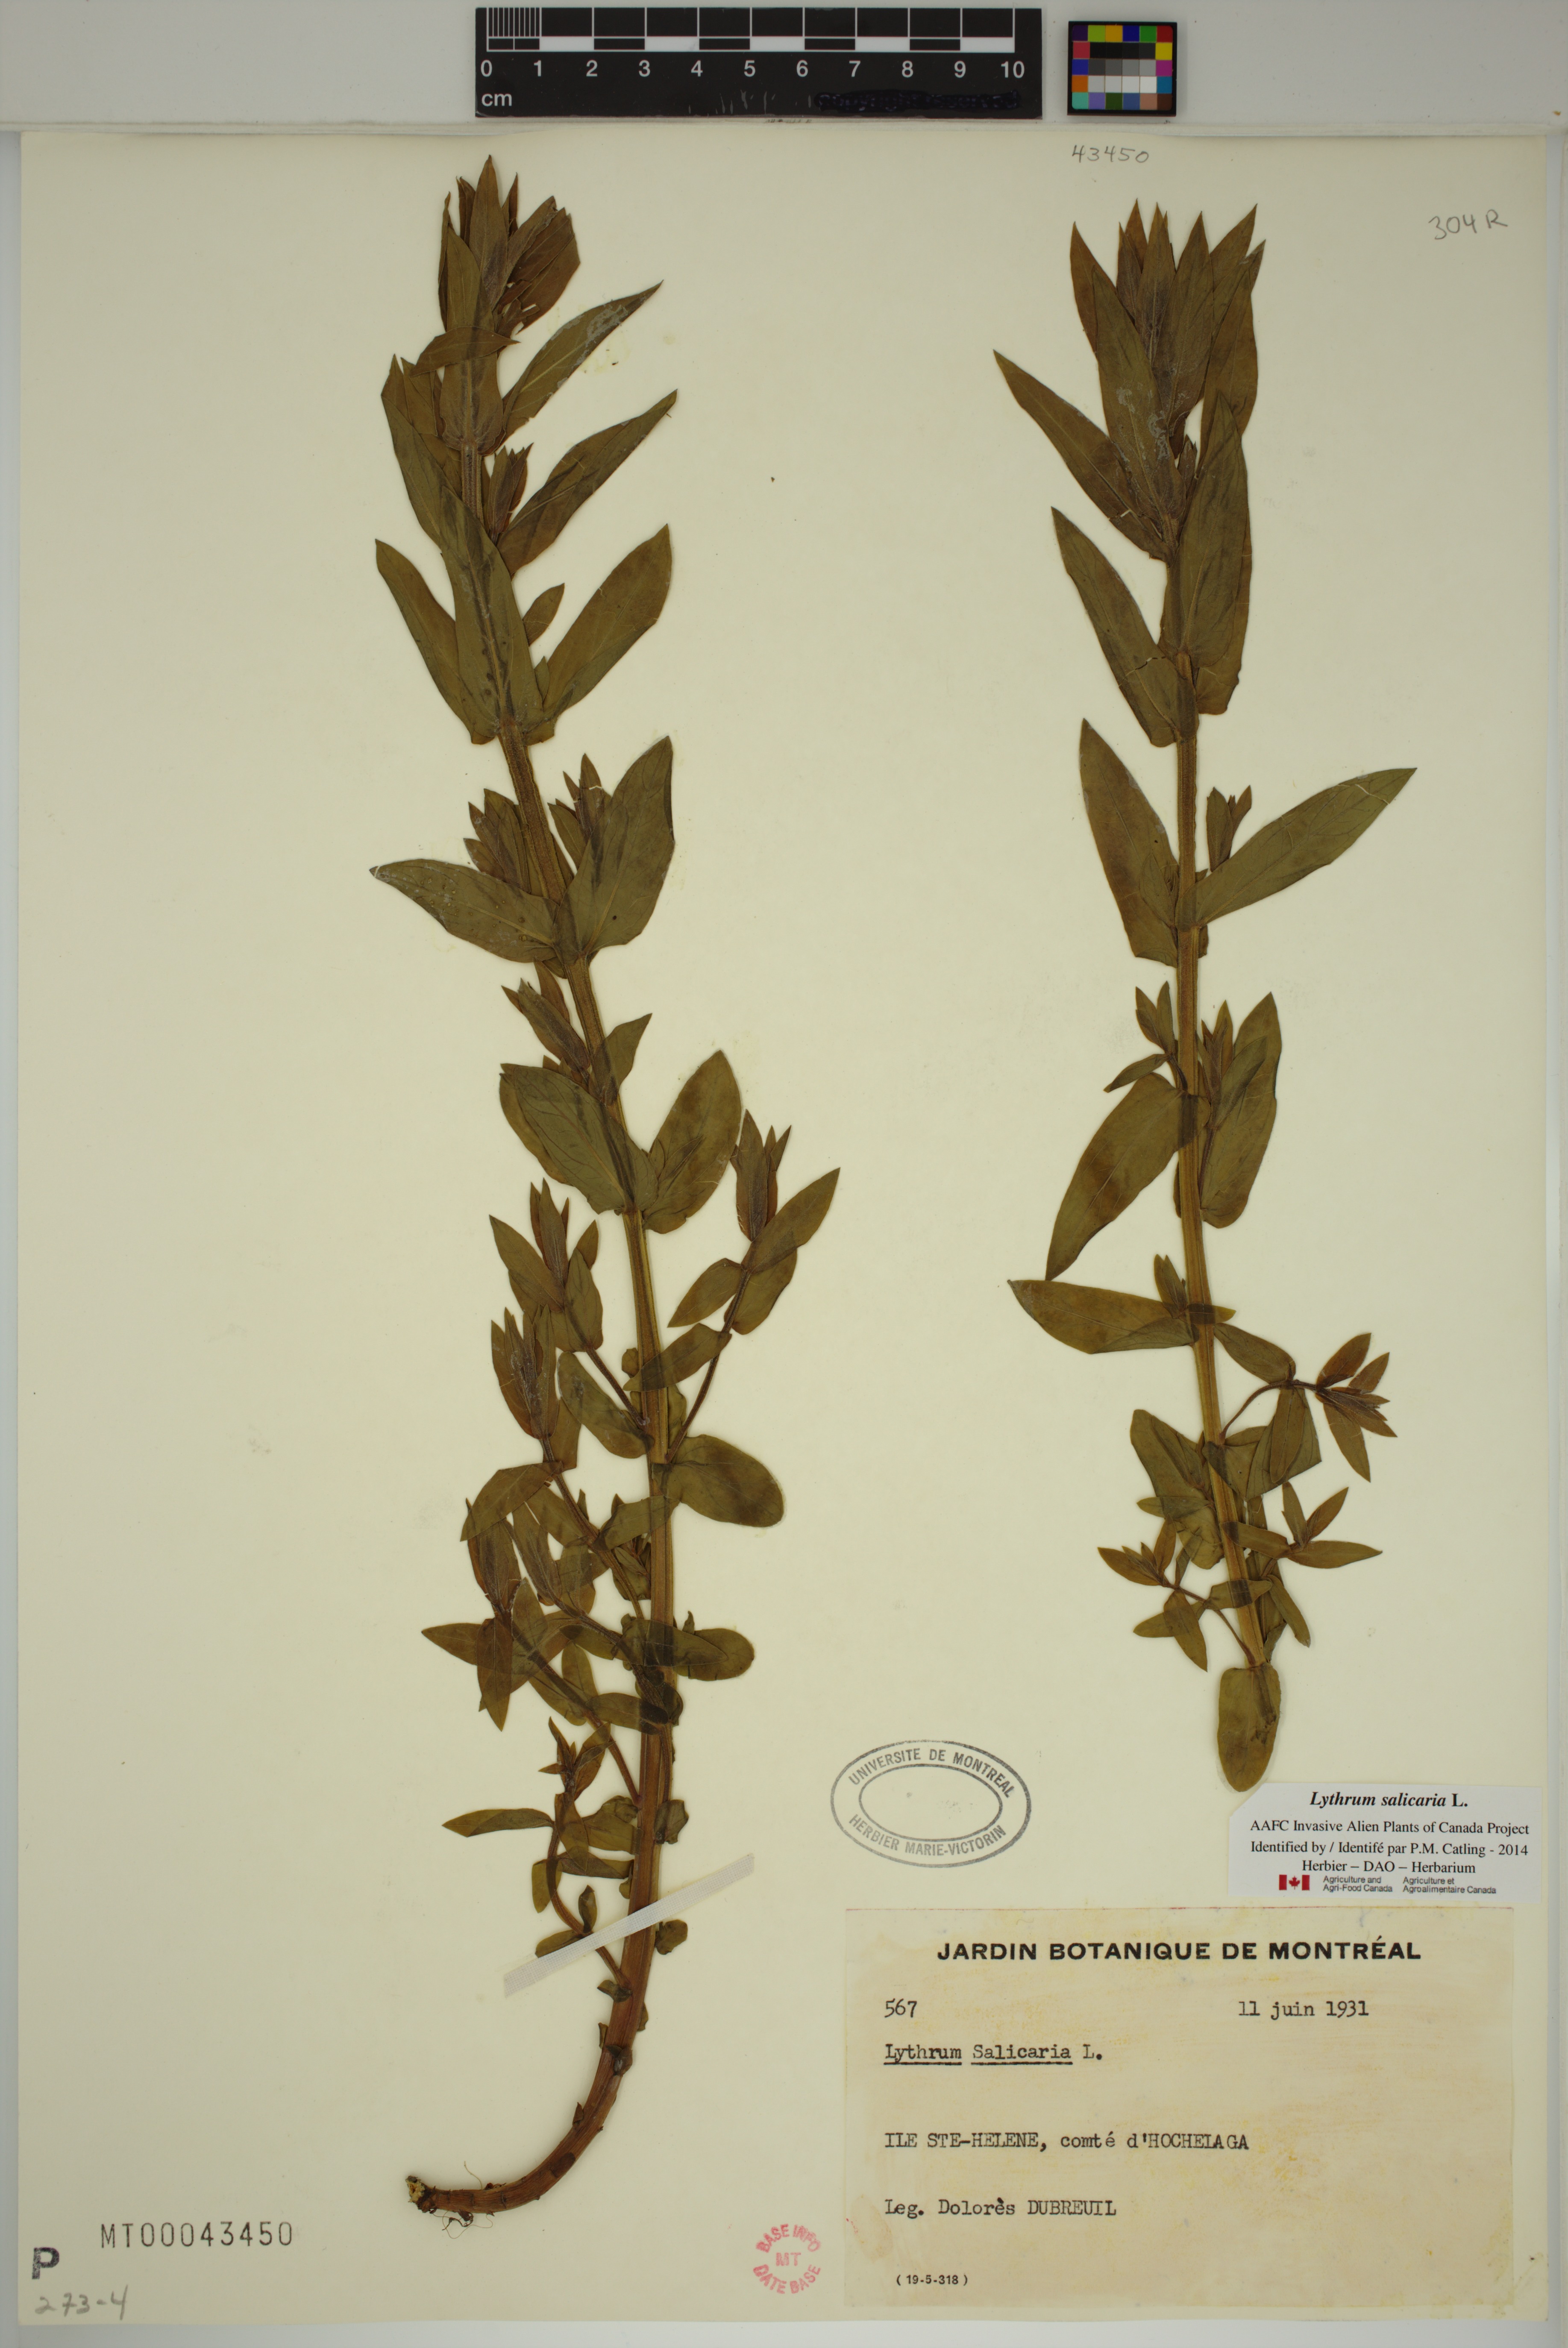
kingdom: Plantae
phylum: Tracheophyta
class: Magnoliopsida
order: Myrtales
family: Lythraceae
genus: Lythrum
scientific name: Lythrum salicaria
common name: Purple loosestrife
